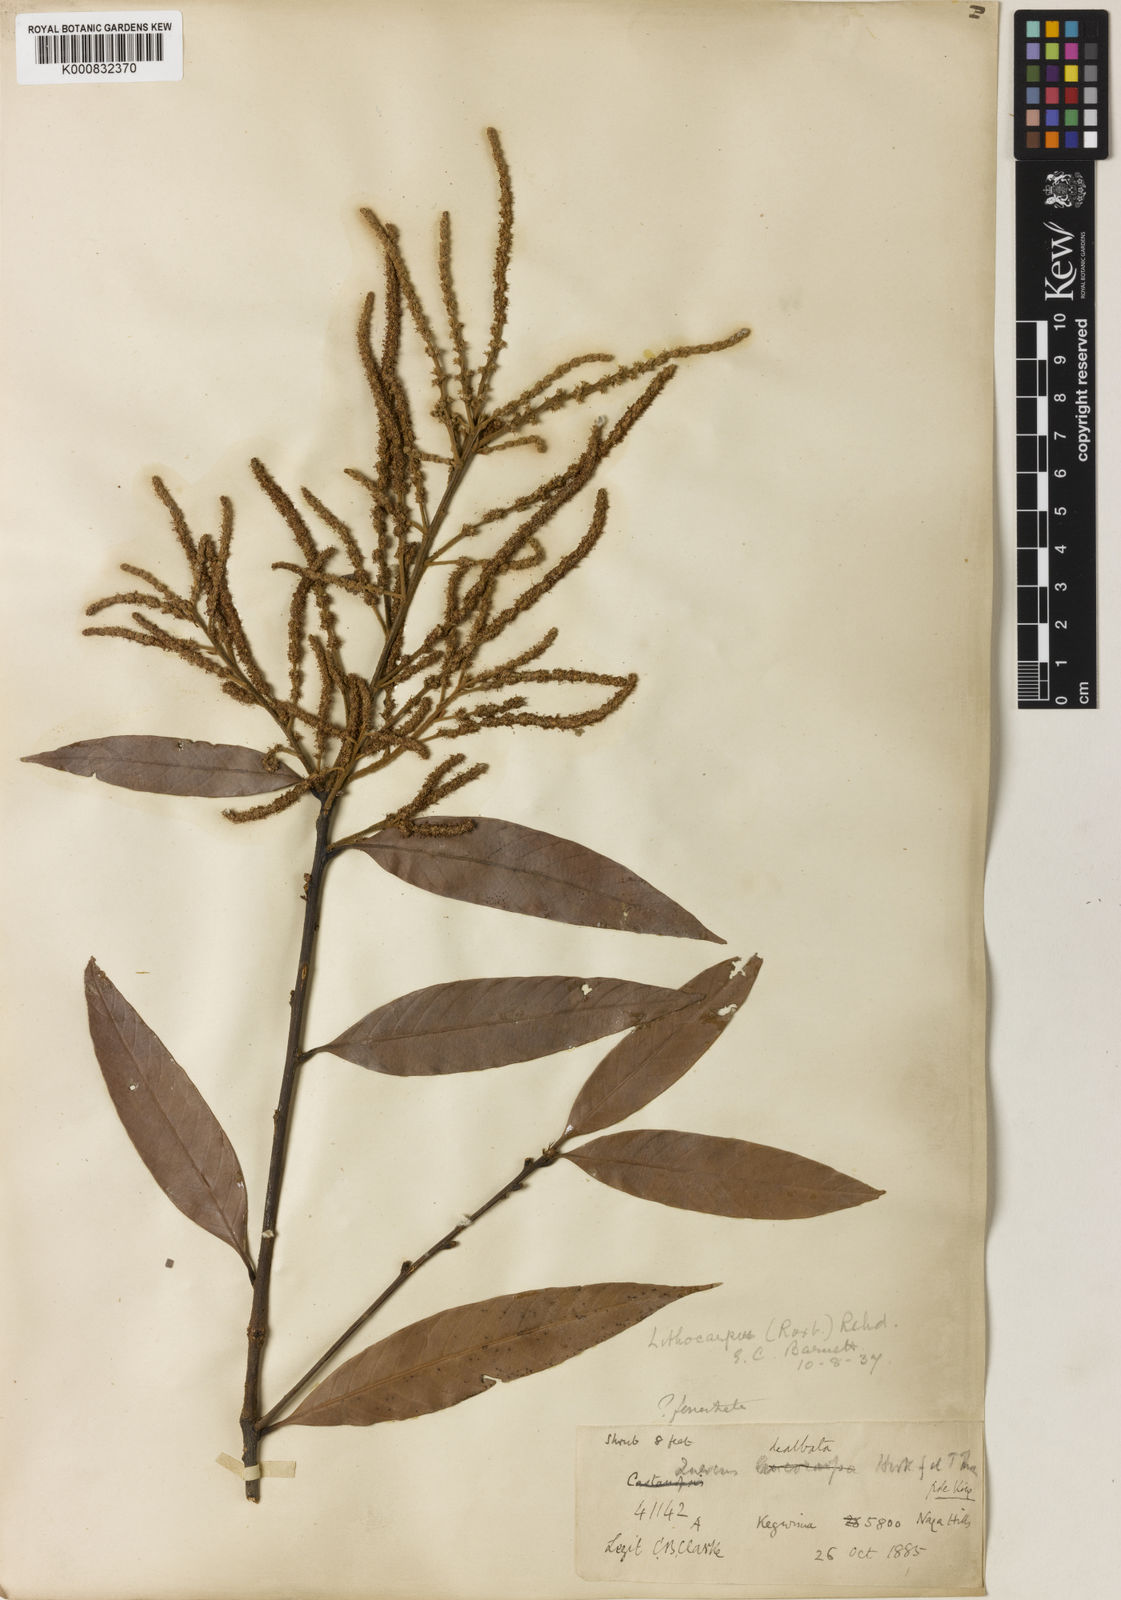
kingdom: Plantae
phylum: Tracheophyta
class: Magnoliopsida
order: Fagales
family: Fagaceae
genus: Lithocarpus
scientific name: Lithocarpus dealbatus
